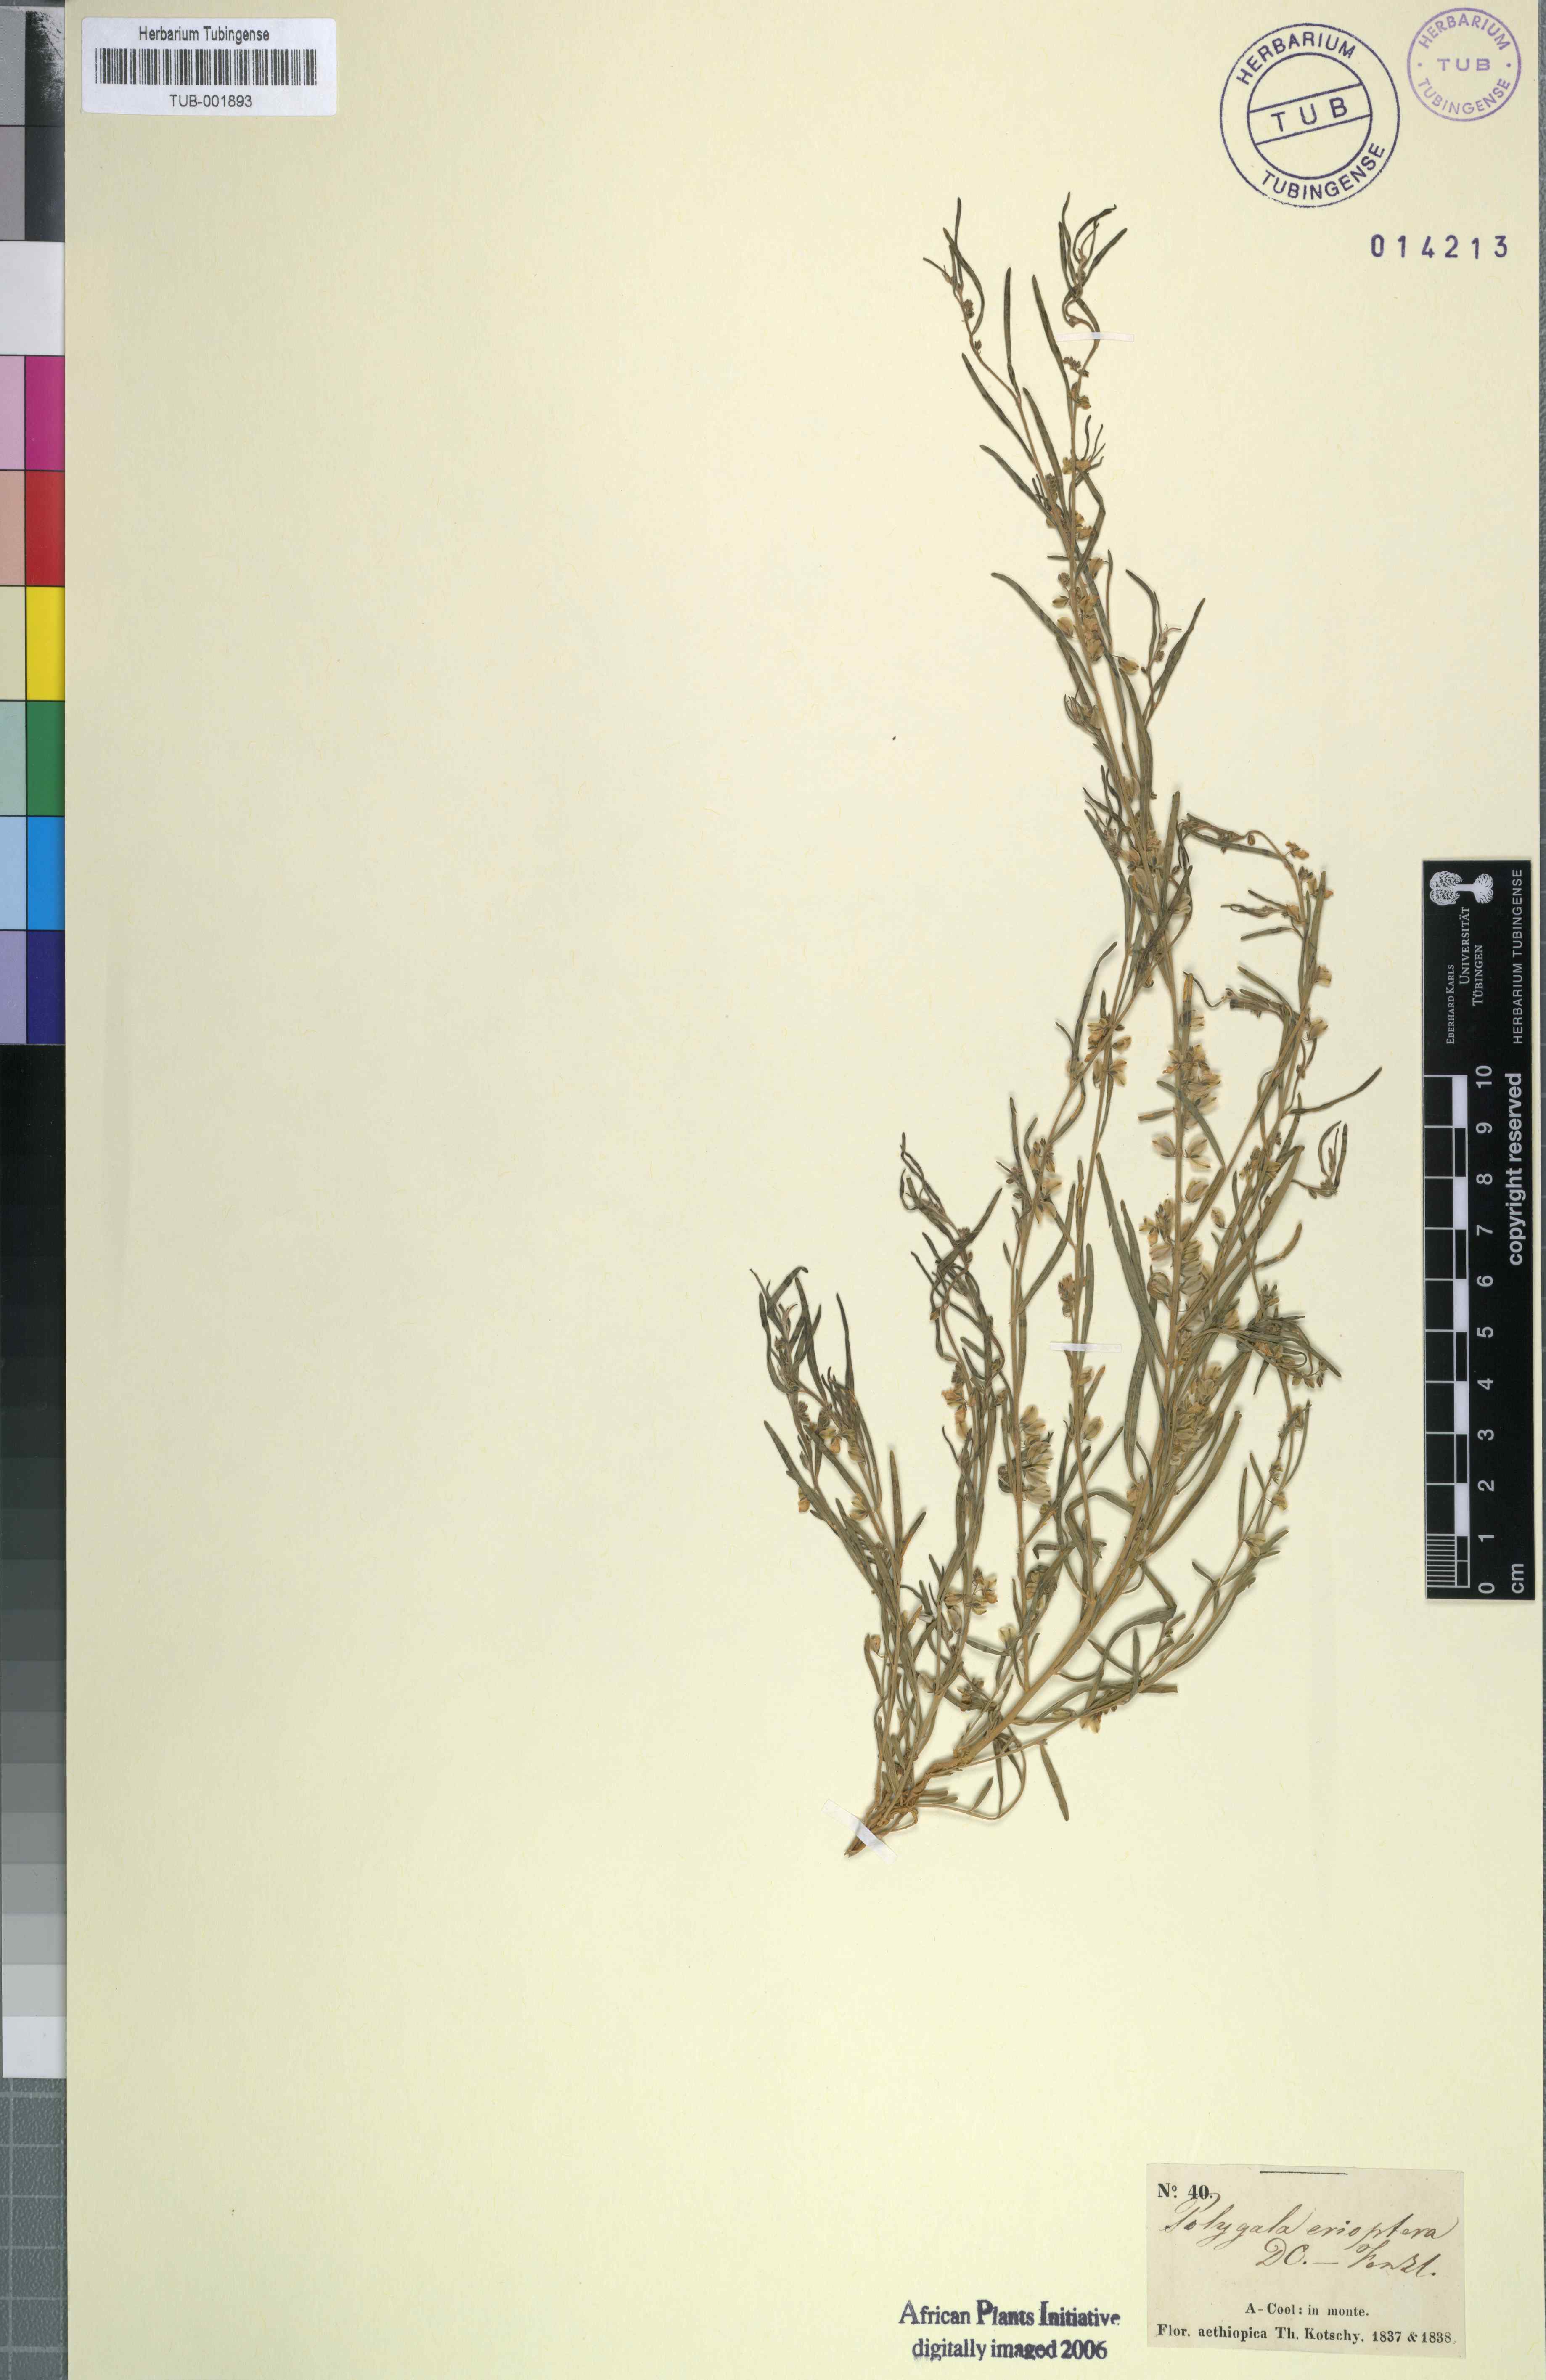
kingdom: Plantae
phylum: Tracheophyta
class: Magnoliopsida
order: Fabales
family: Polygalaceae
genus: Polygala
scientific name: Polygala erioptera
